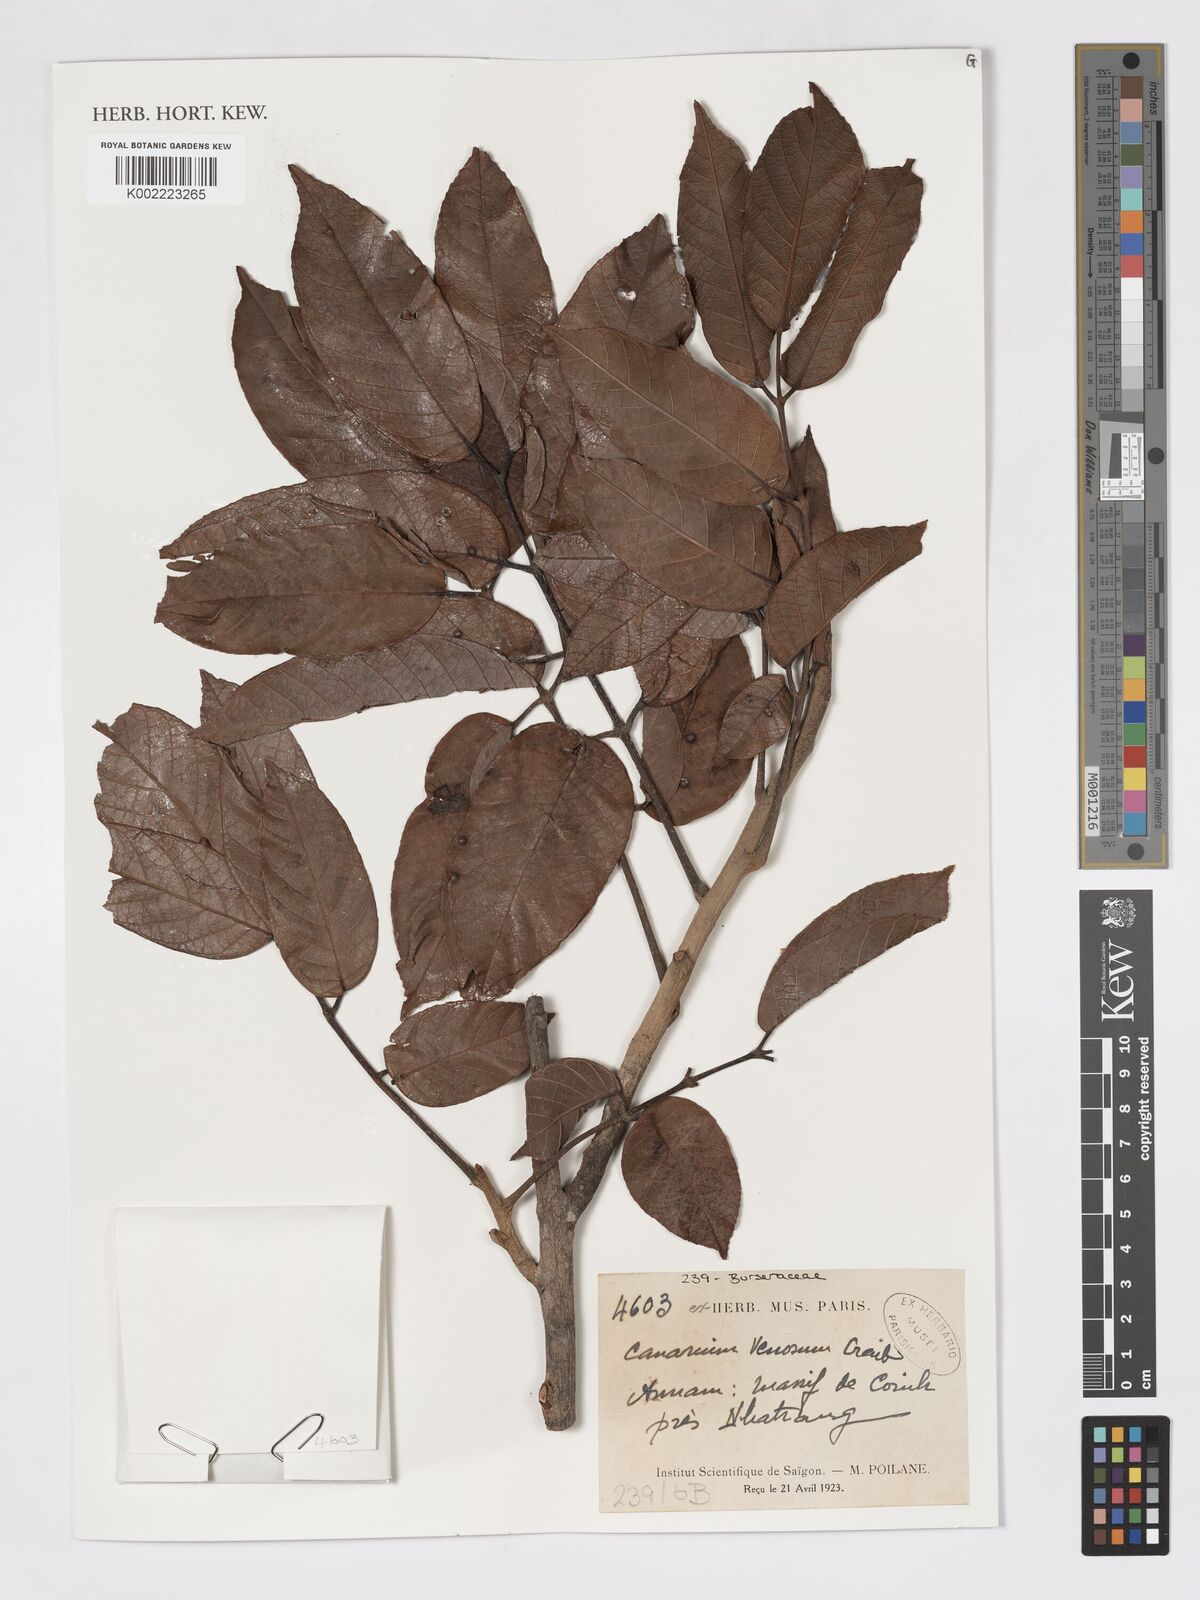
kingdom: Plantae
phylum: Tracheophyta
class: Magnoliopsida
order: Sapindales
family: Burseraceae
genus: Canarium
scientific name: Canarium subulatum
